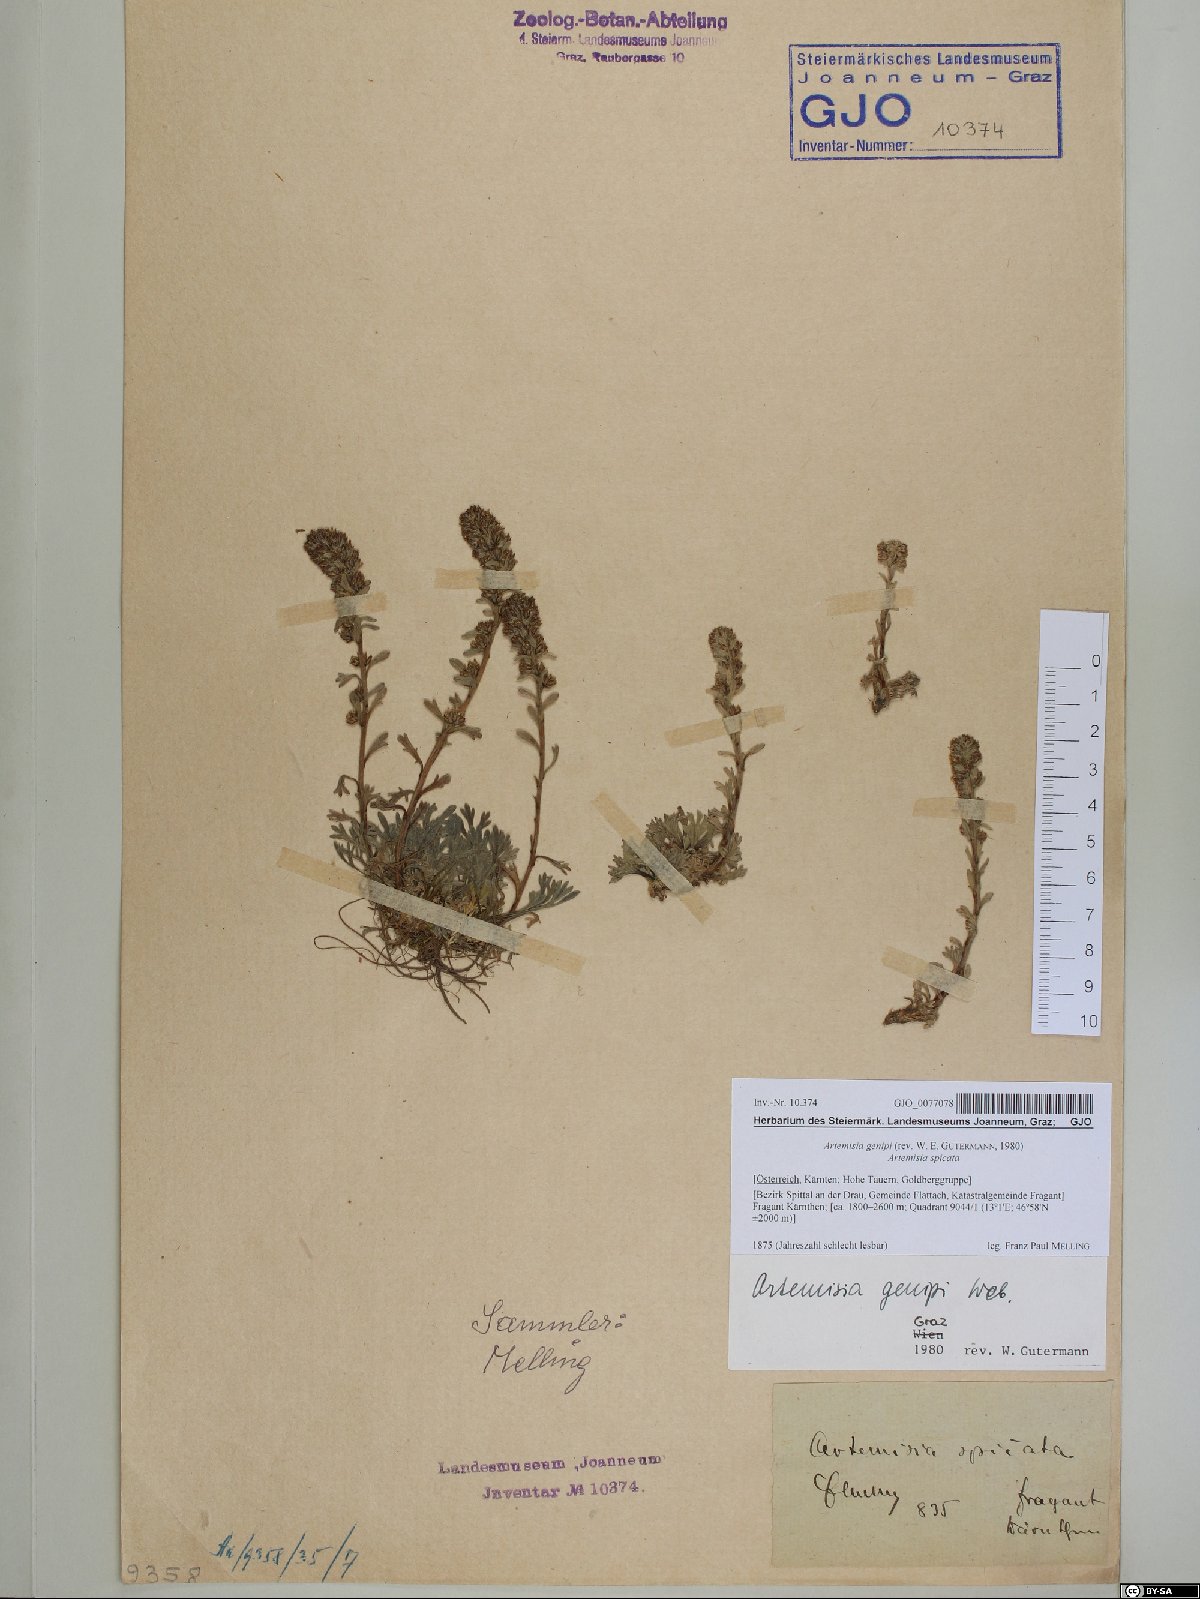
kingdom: Plantae
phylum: Tracheophyta
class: Magnoliopsida
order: Asterales
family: Asteraceae
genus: Artemisia
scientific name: Artemisia genipi
